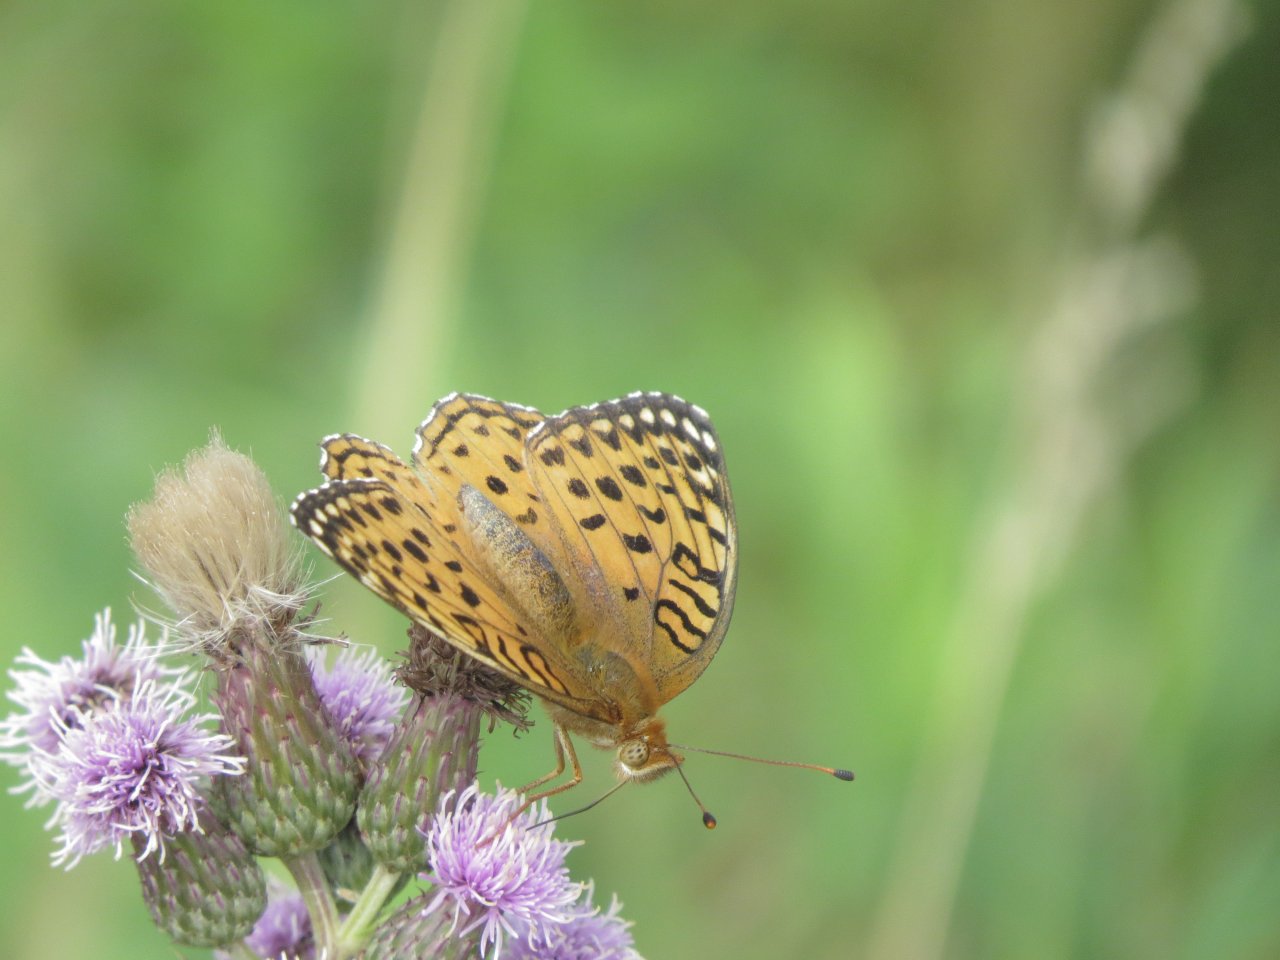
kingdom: Animalia
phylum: Arthropoda
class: Insecta
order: Lepidoptera
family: Nymphalidae
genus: Speyeria
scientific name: Speyeria aphrodite
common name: Aphrodite Fritillary
